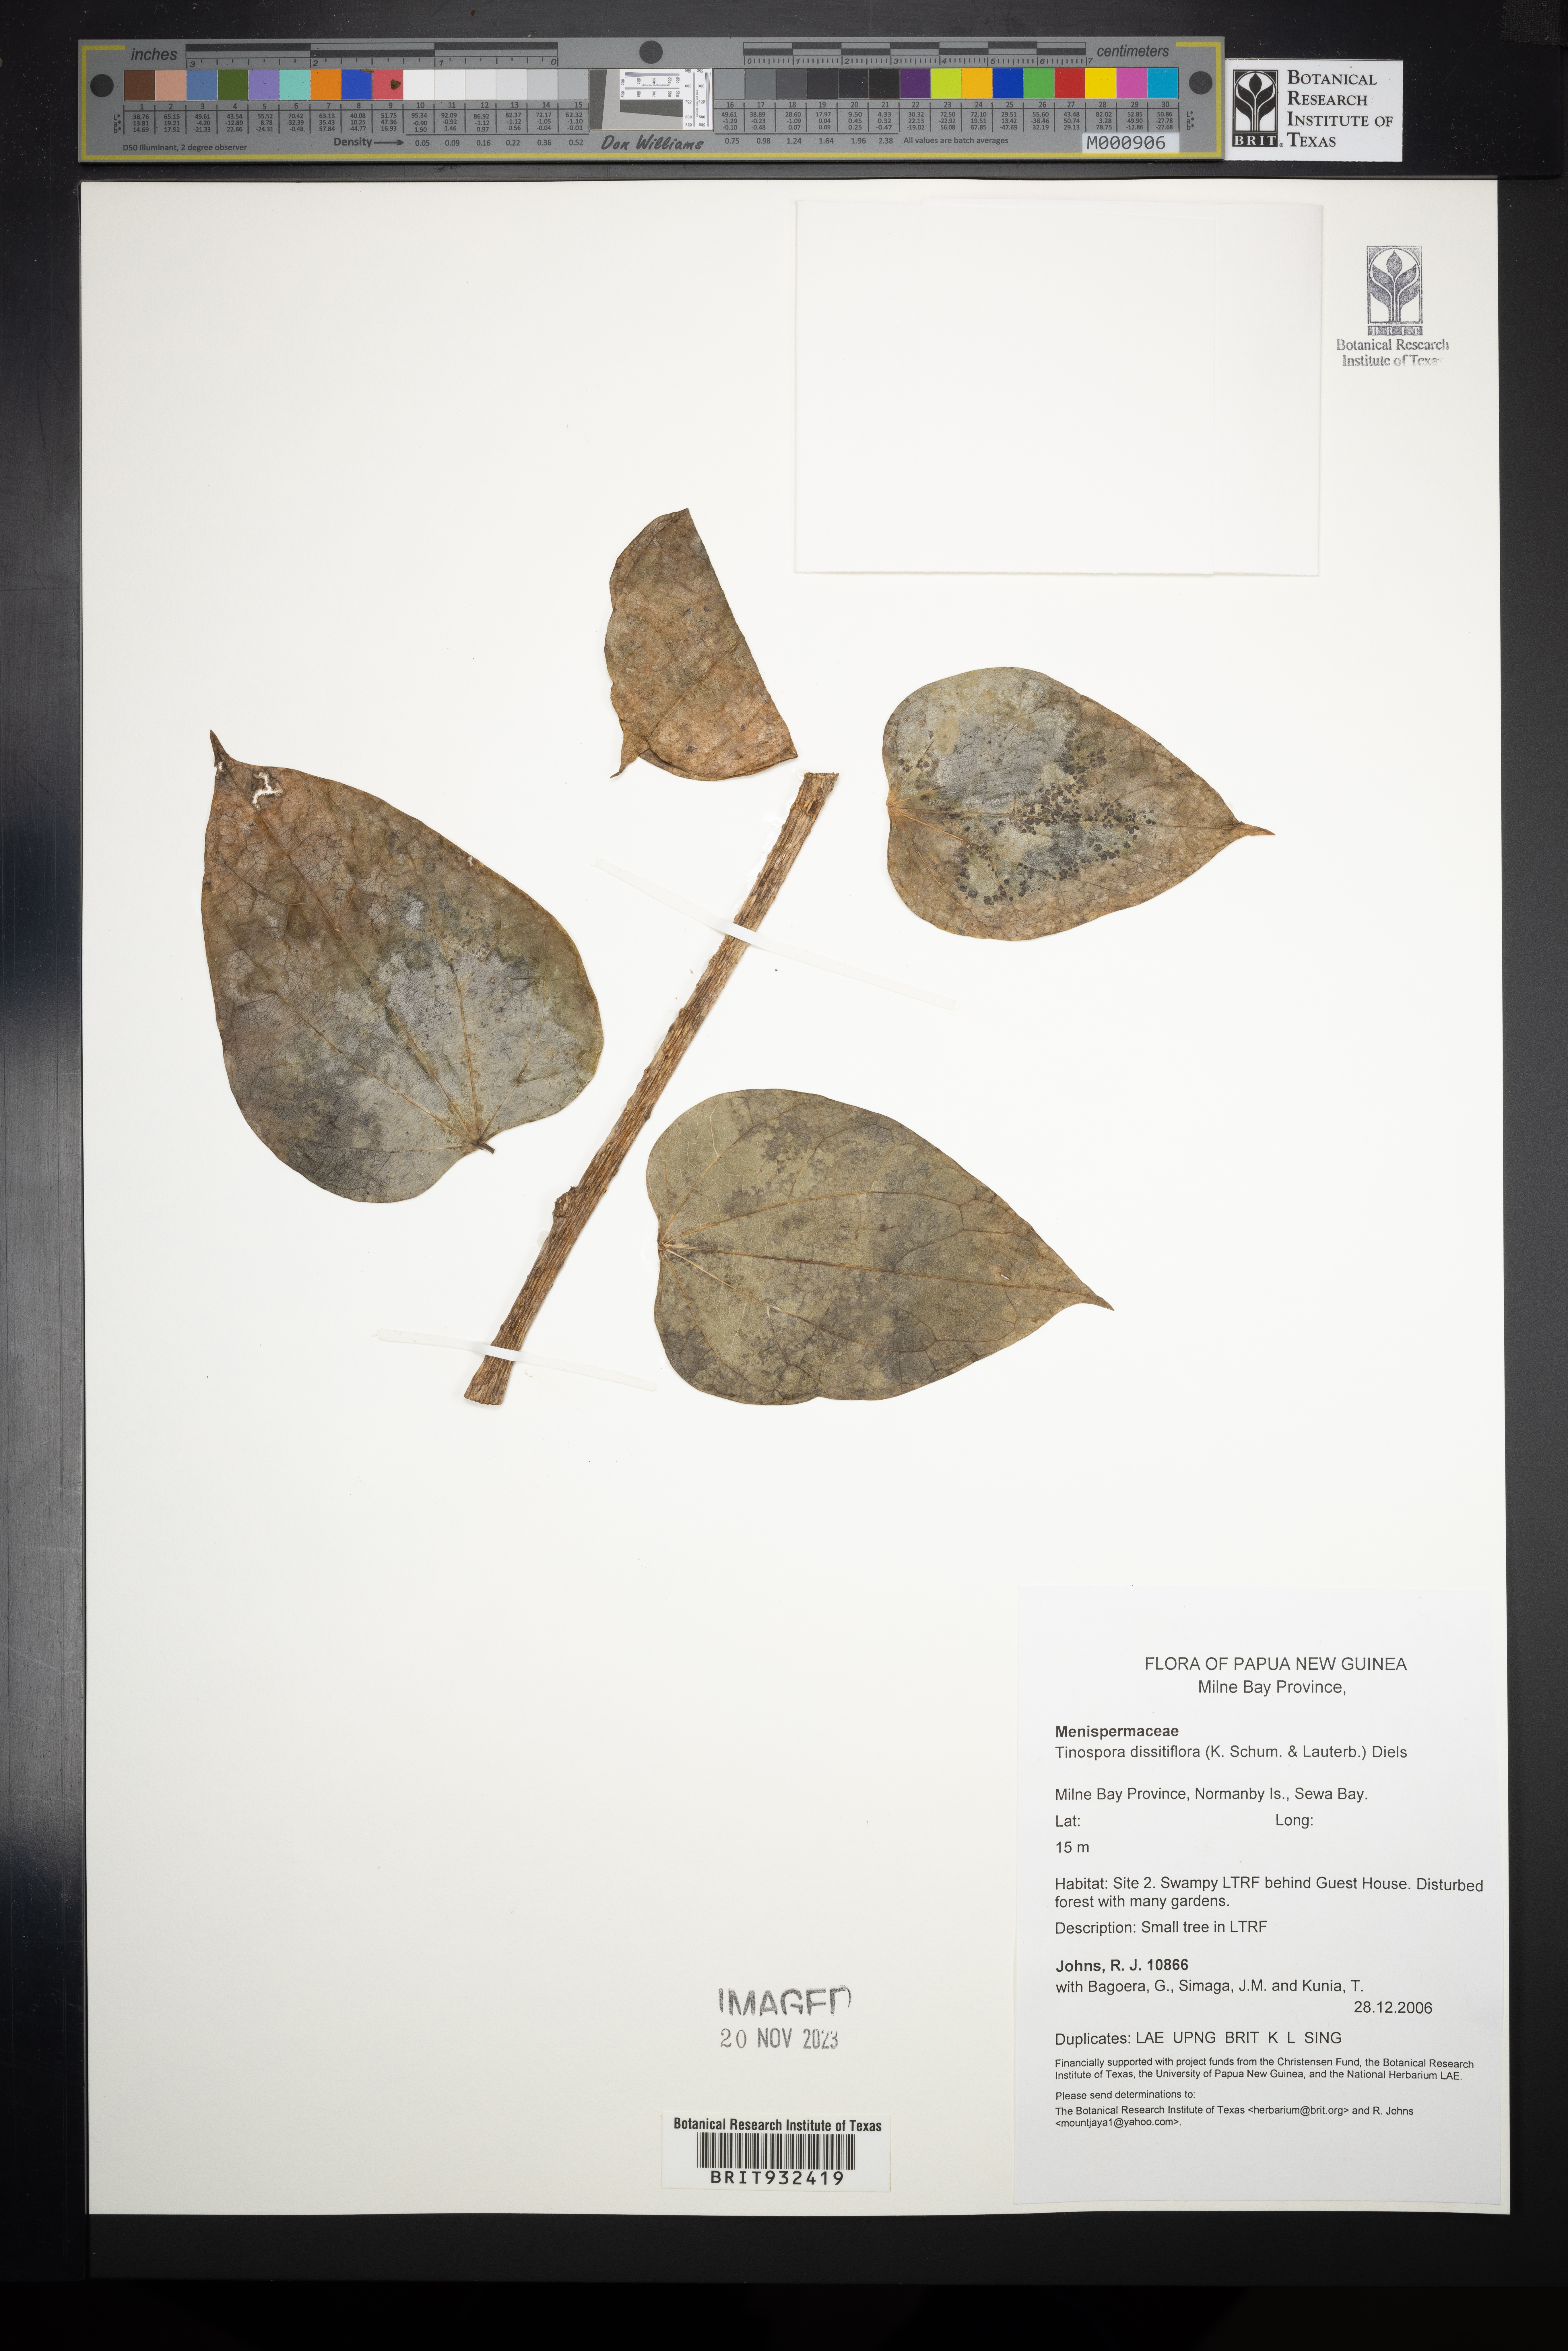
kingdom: Plantae
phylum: Tracheophyta
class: Magnoliopsida
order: Ranunculales
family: Menispermaceae
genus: Tinospora
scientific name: Tinospora
